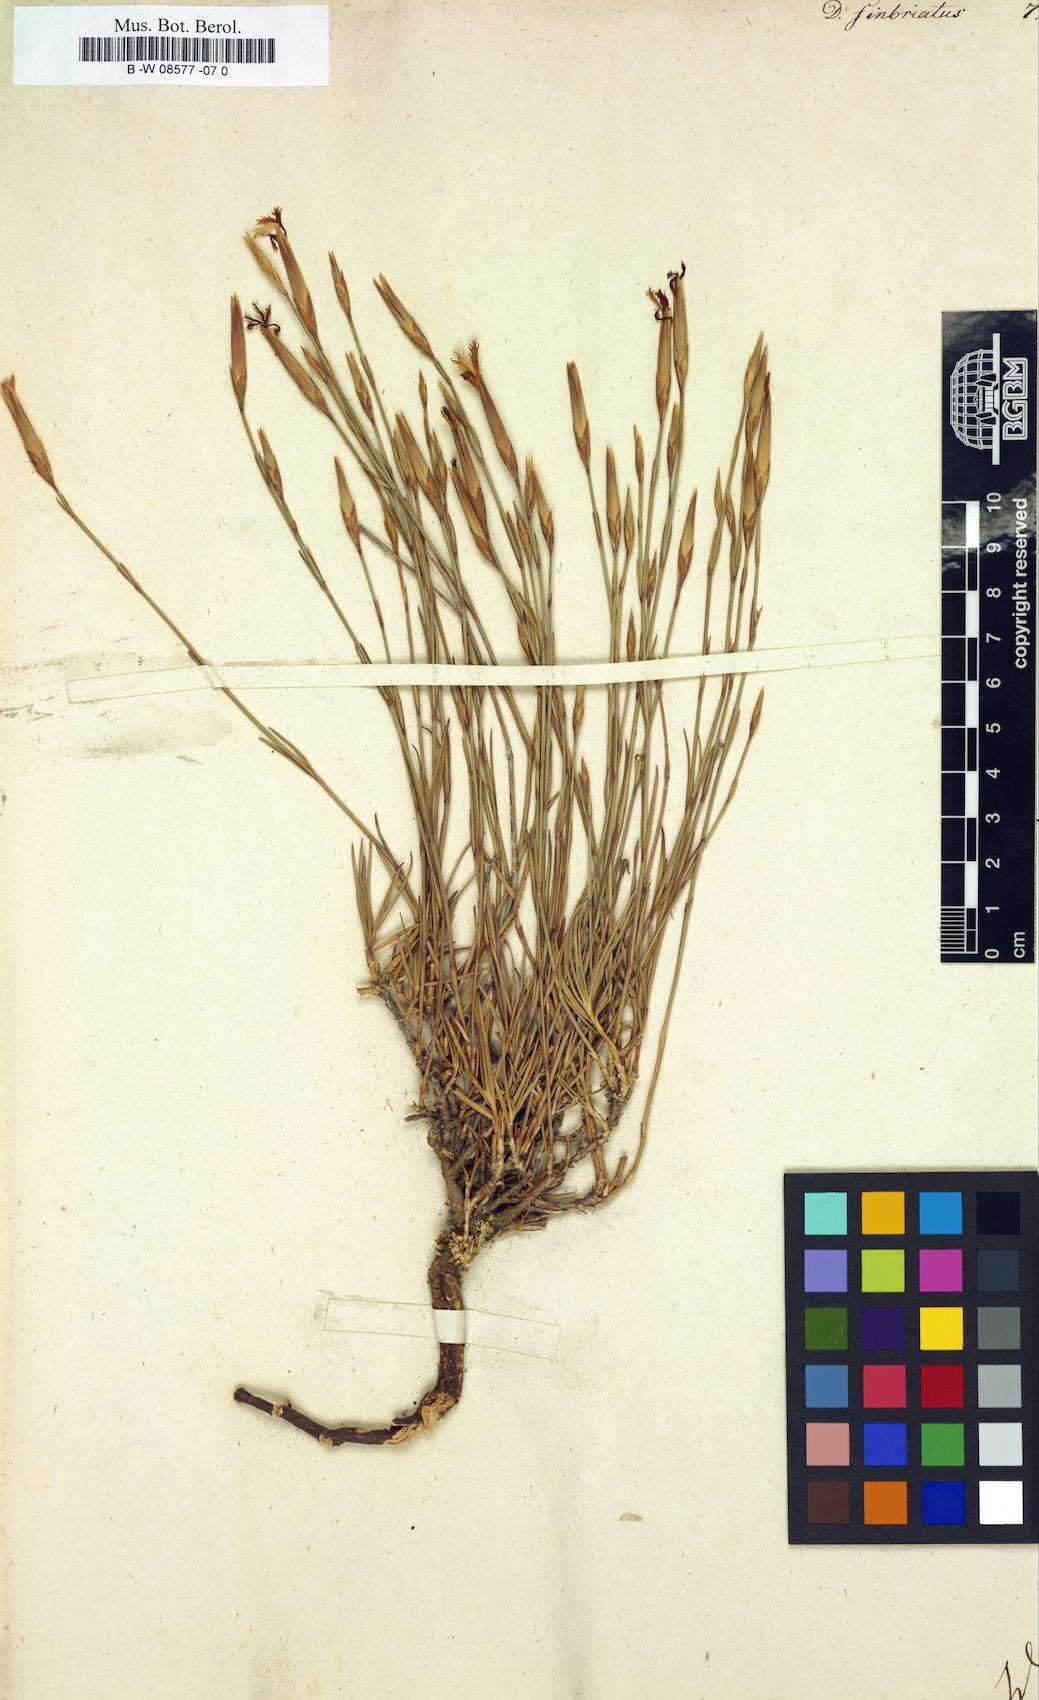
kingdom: Plantae
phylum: Tracheophyta
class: Magnoliopsida
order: Caryophyllales
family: Caryophyllaceae
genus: Dianthus
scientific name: Dianthus
